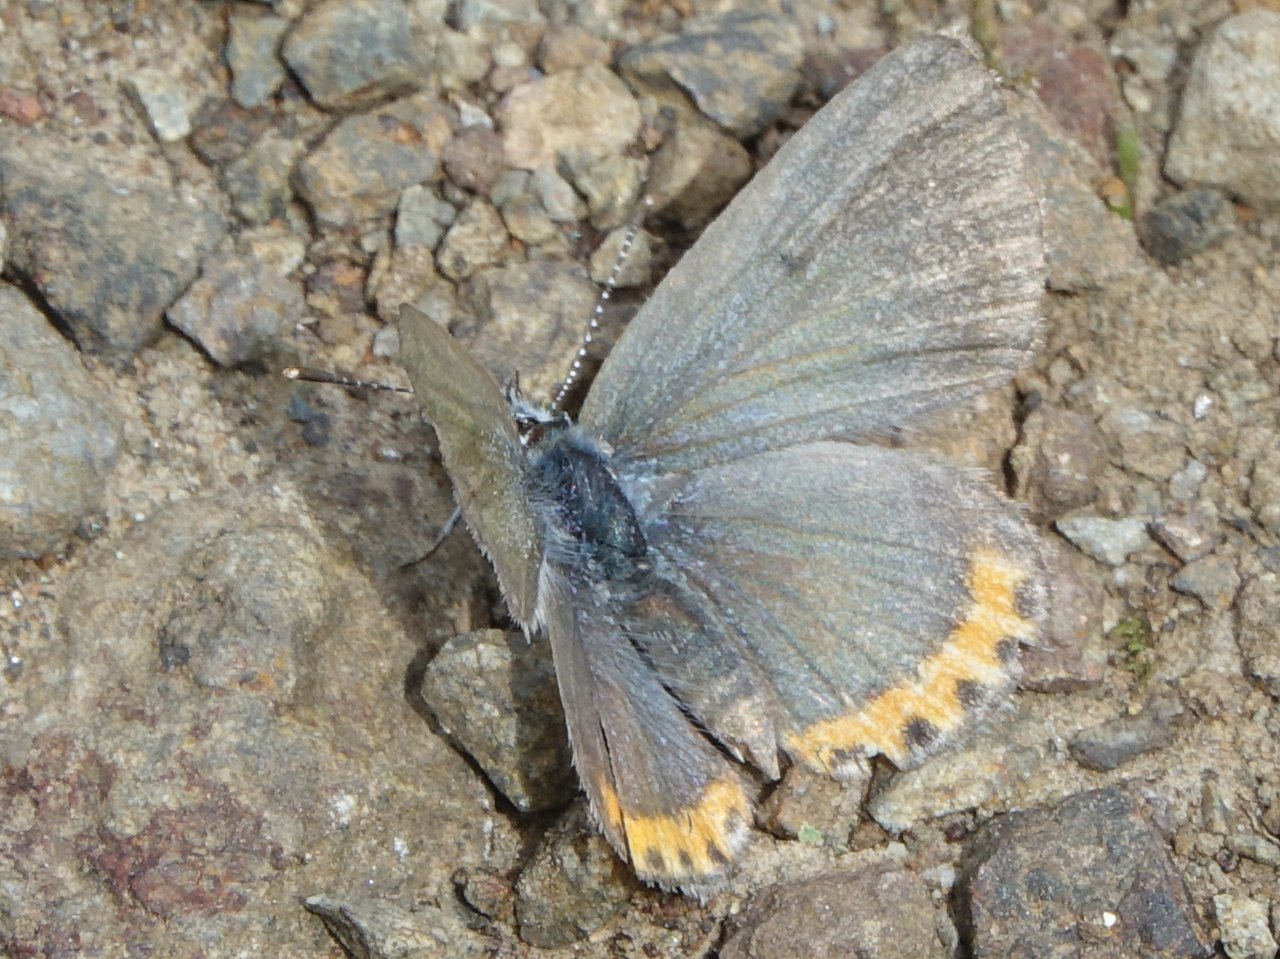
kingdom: Animalia
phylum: Arthropoda
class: Insecta
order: Lepidoptera
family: Lycaenidae
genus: Plebejus
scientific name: Plebejus acmon
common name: Acmon Blue
